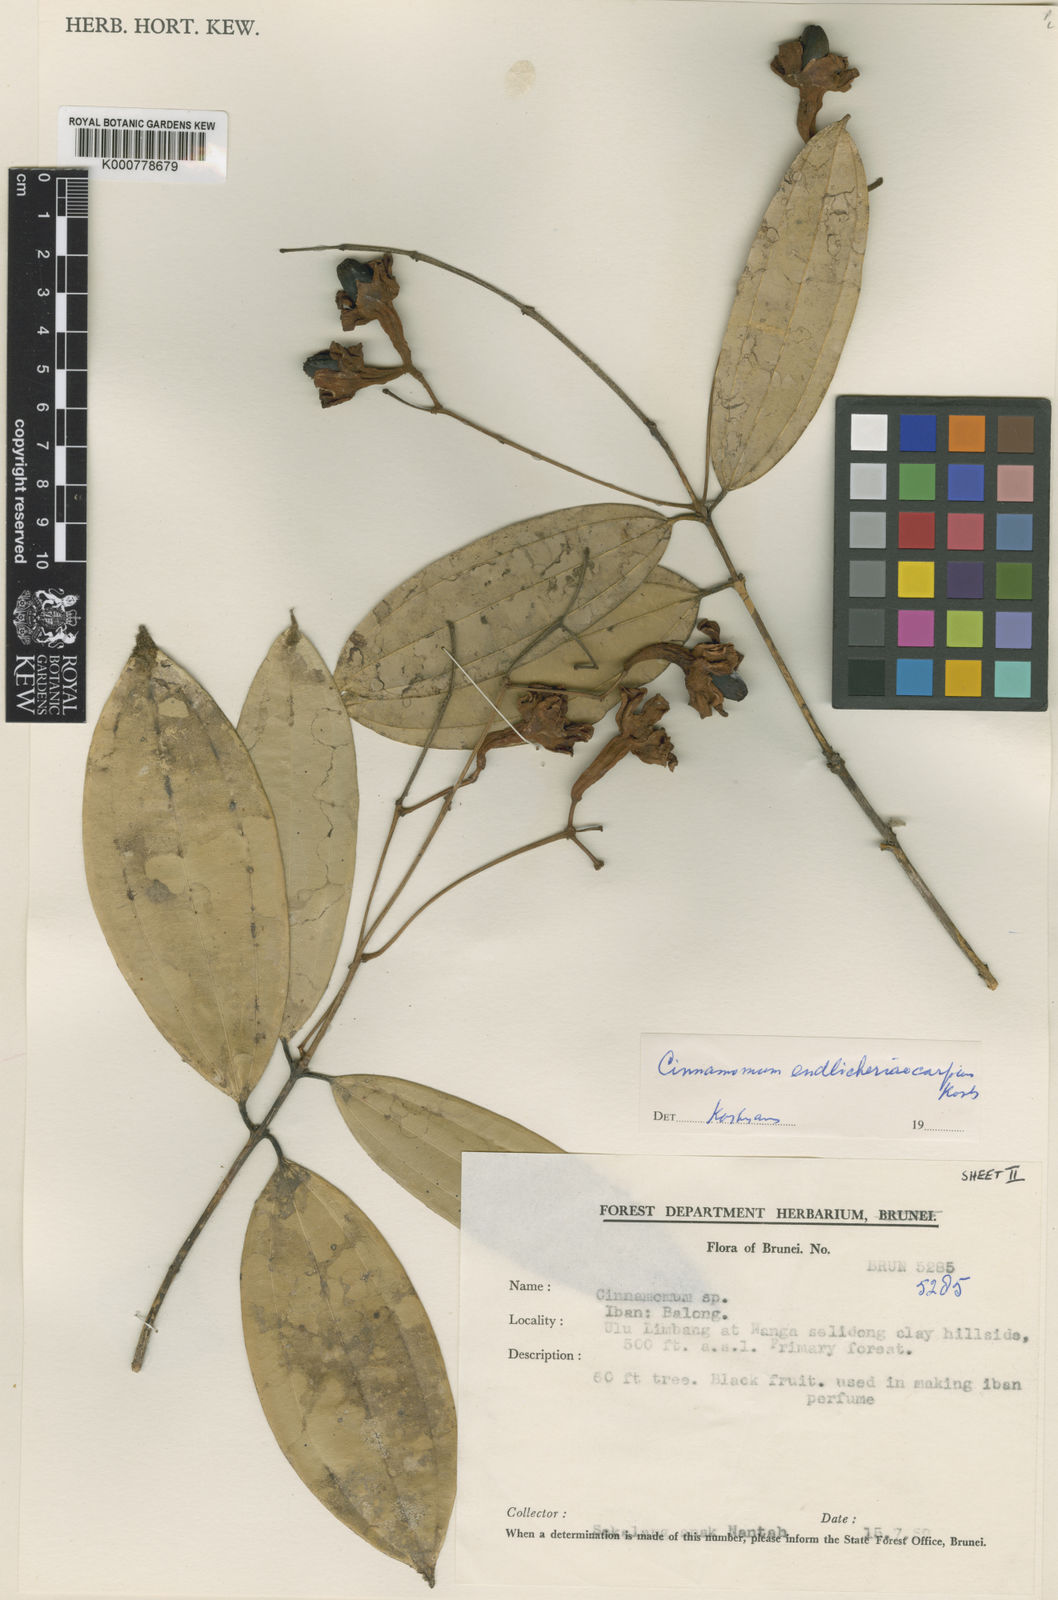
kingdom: Plantae
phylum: Tracheophyta
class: Magnoliopsida
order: Laurales
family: Lauraceae
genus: Cinnamomum
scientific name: Cinnamomum crassinervium
